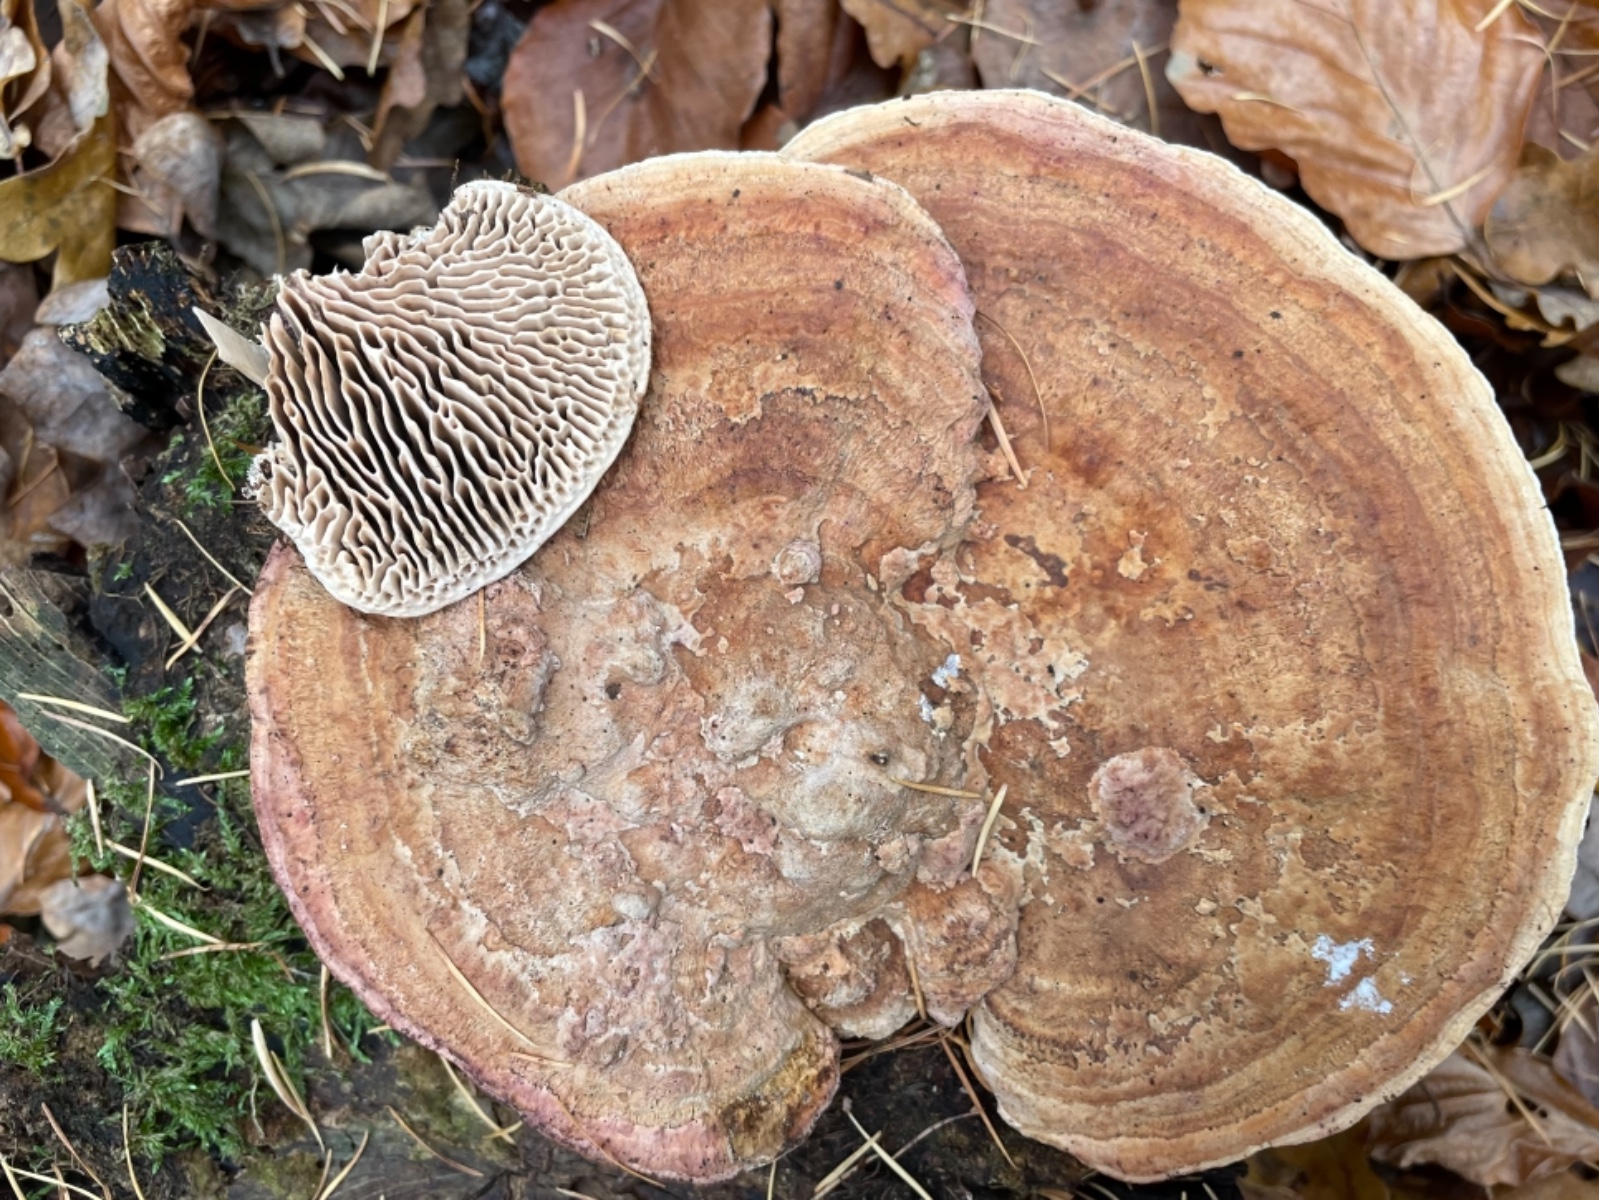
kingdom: Fungi
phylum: Basidiomycota
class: Agaricomycetes
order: Polyporales
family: Fomitopsidaceae
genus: Daedalea
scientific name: Daedalea quercina
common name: ege-labyrintsvamp
